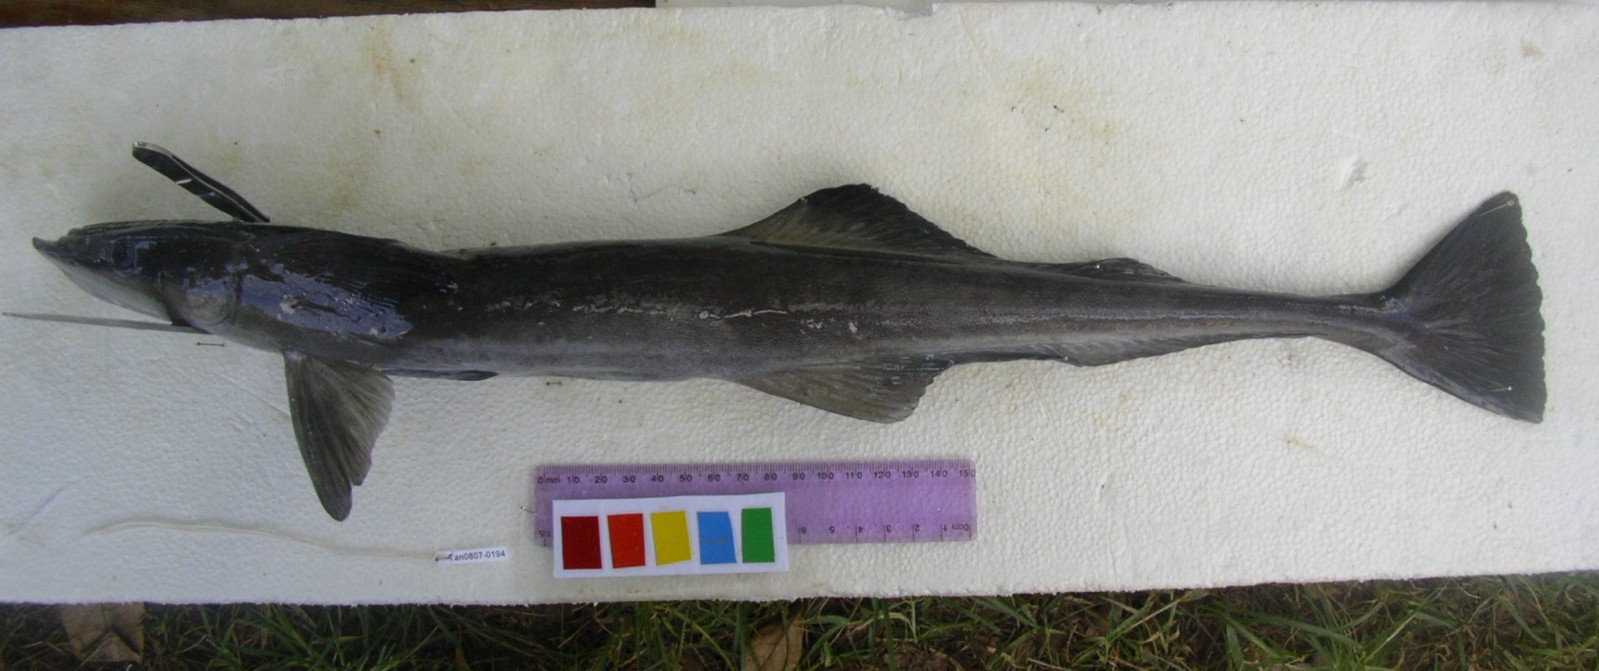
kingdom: Animalia
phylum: Chordata
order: Perciformes
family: Echeneidae
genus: Echeneis
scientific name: Echeneis naucrates
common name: Sharksucker
